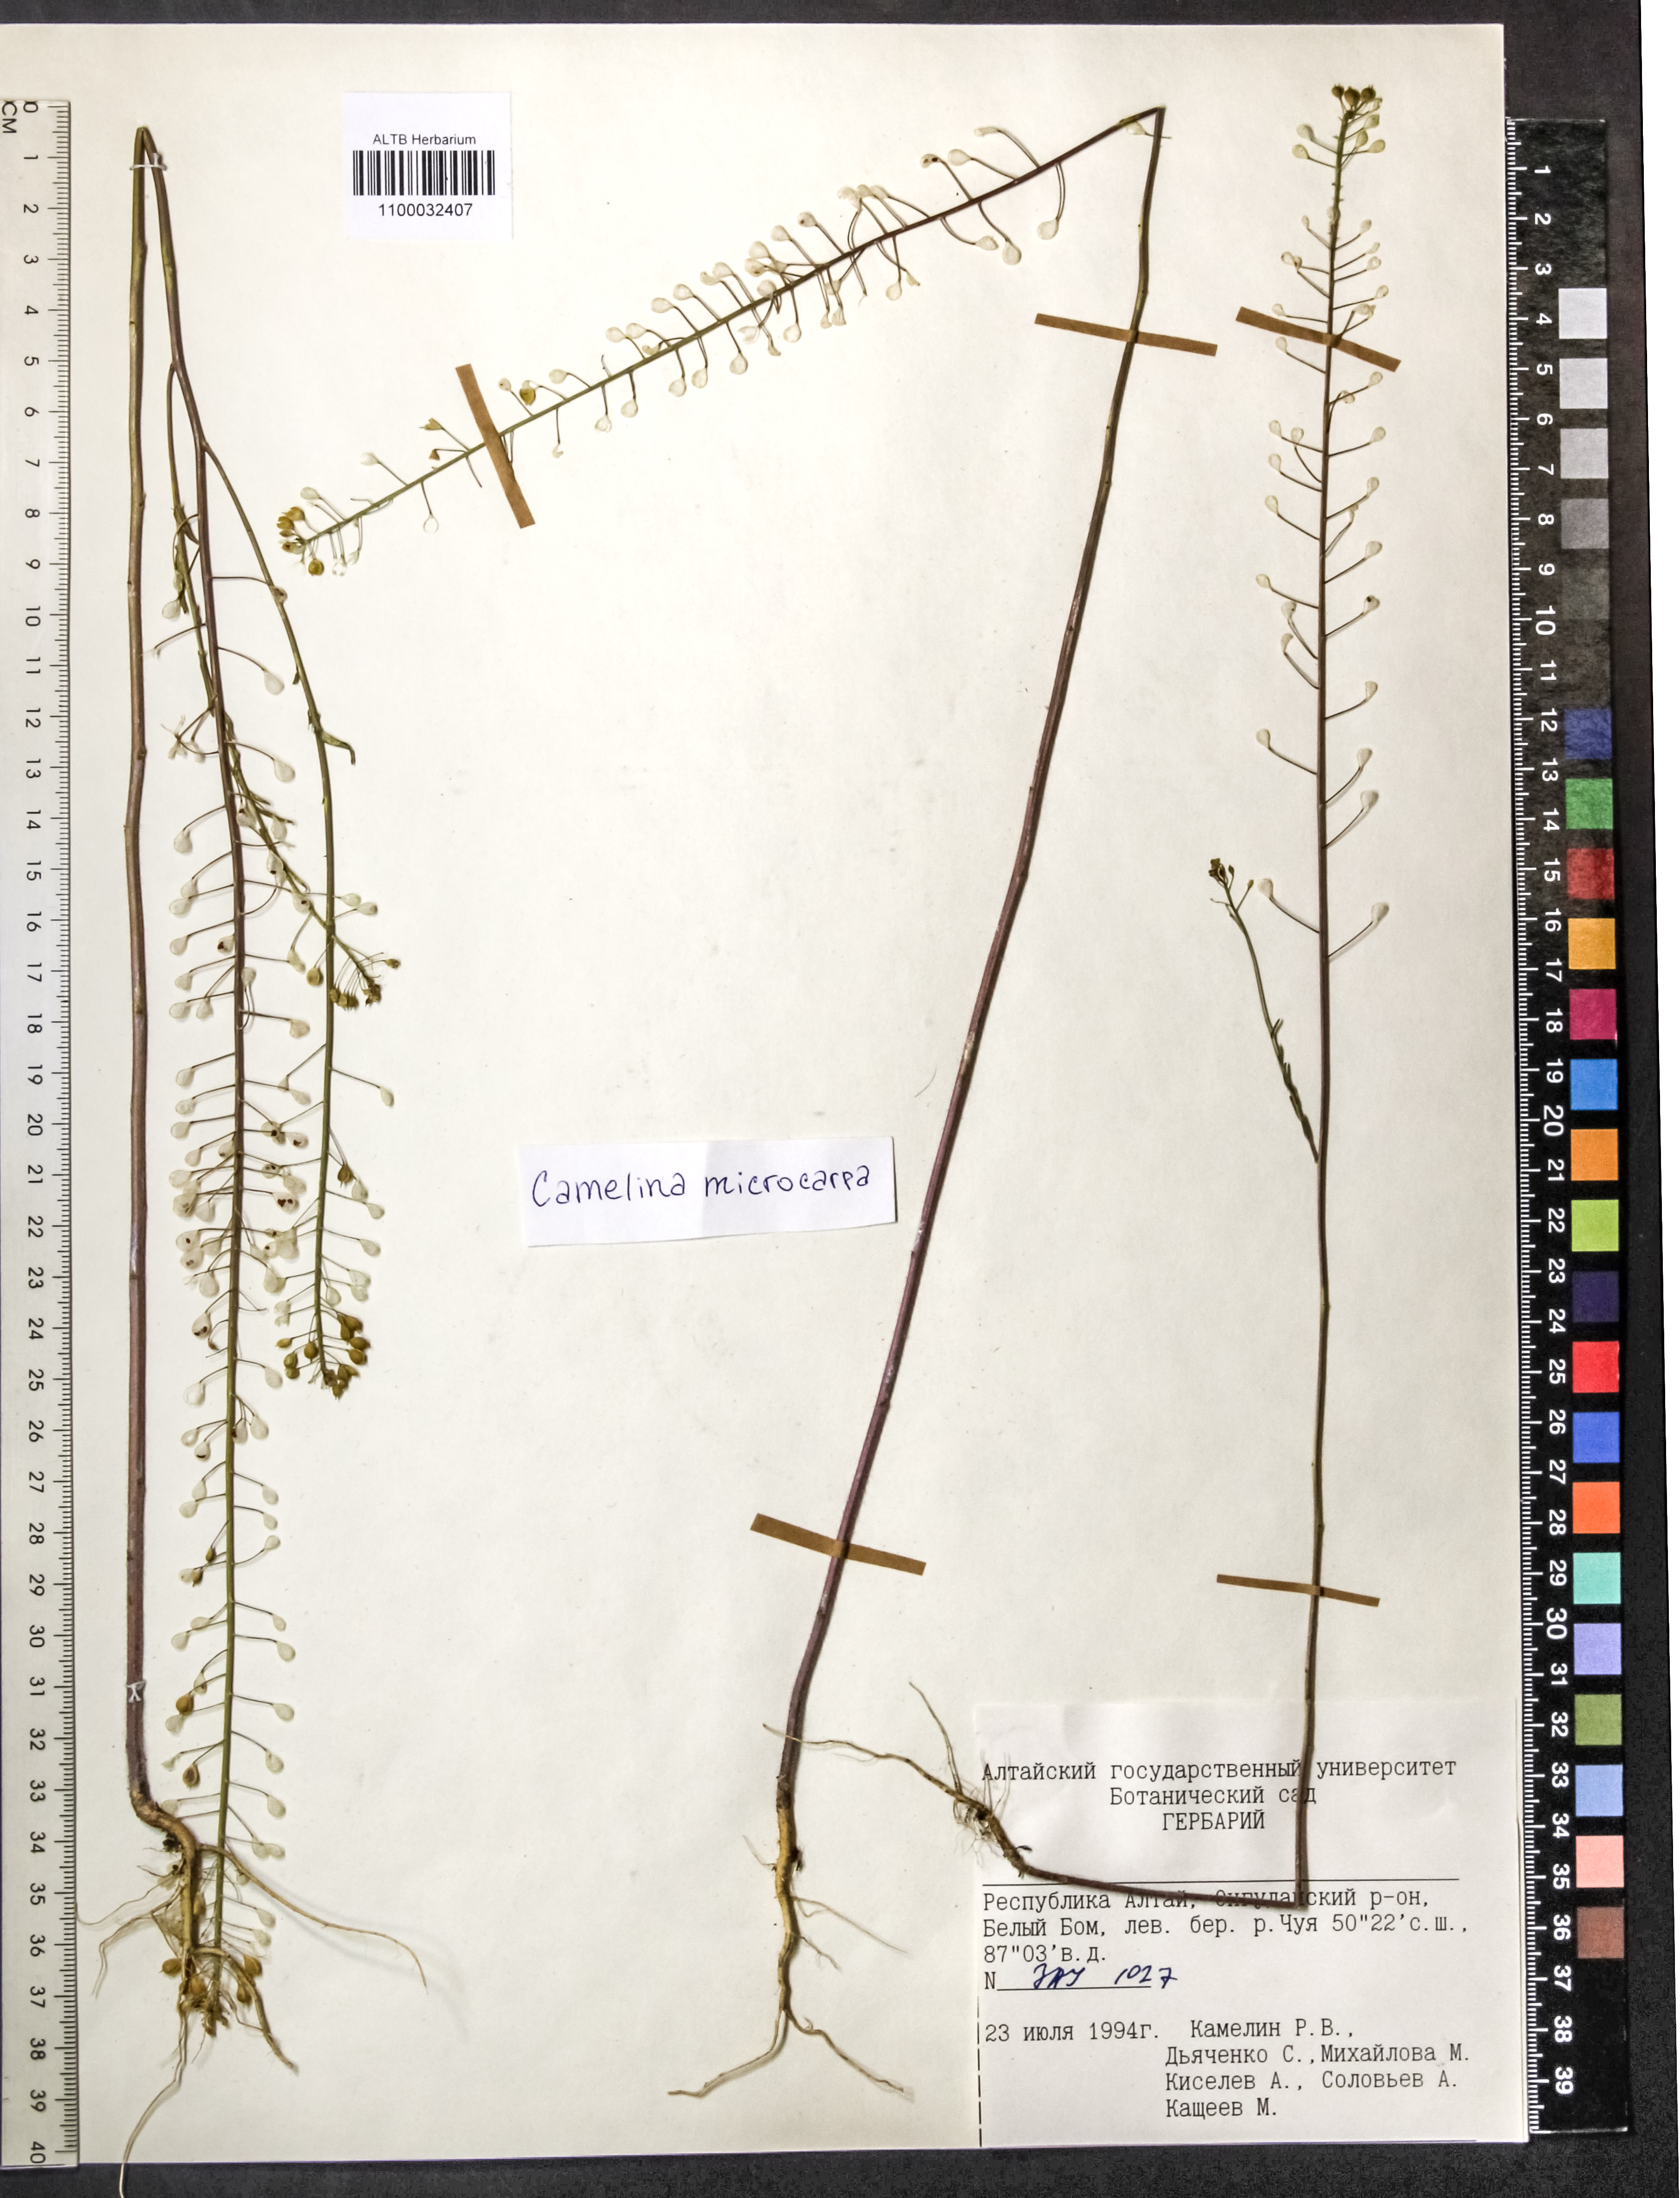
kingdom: Plantae
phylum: Tracheophyta
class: Magnoliopsida
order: Brassicales
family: Brassicaceae
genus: Camelina
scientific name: Camelina microcarpa
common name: Lesser gold-of-pleasure
